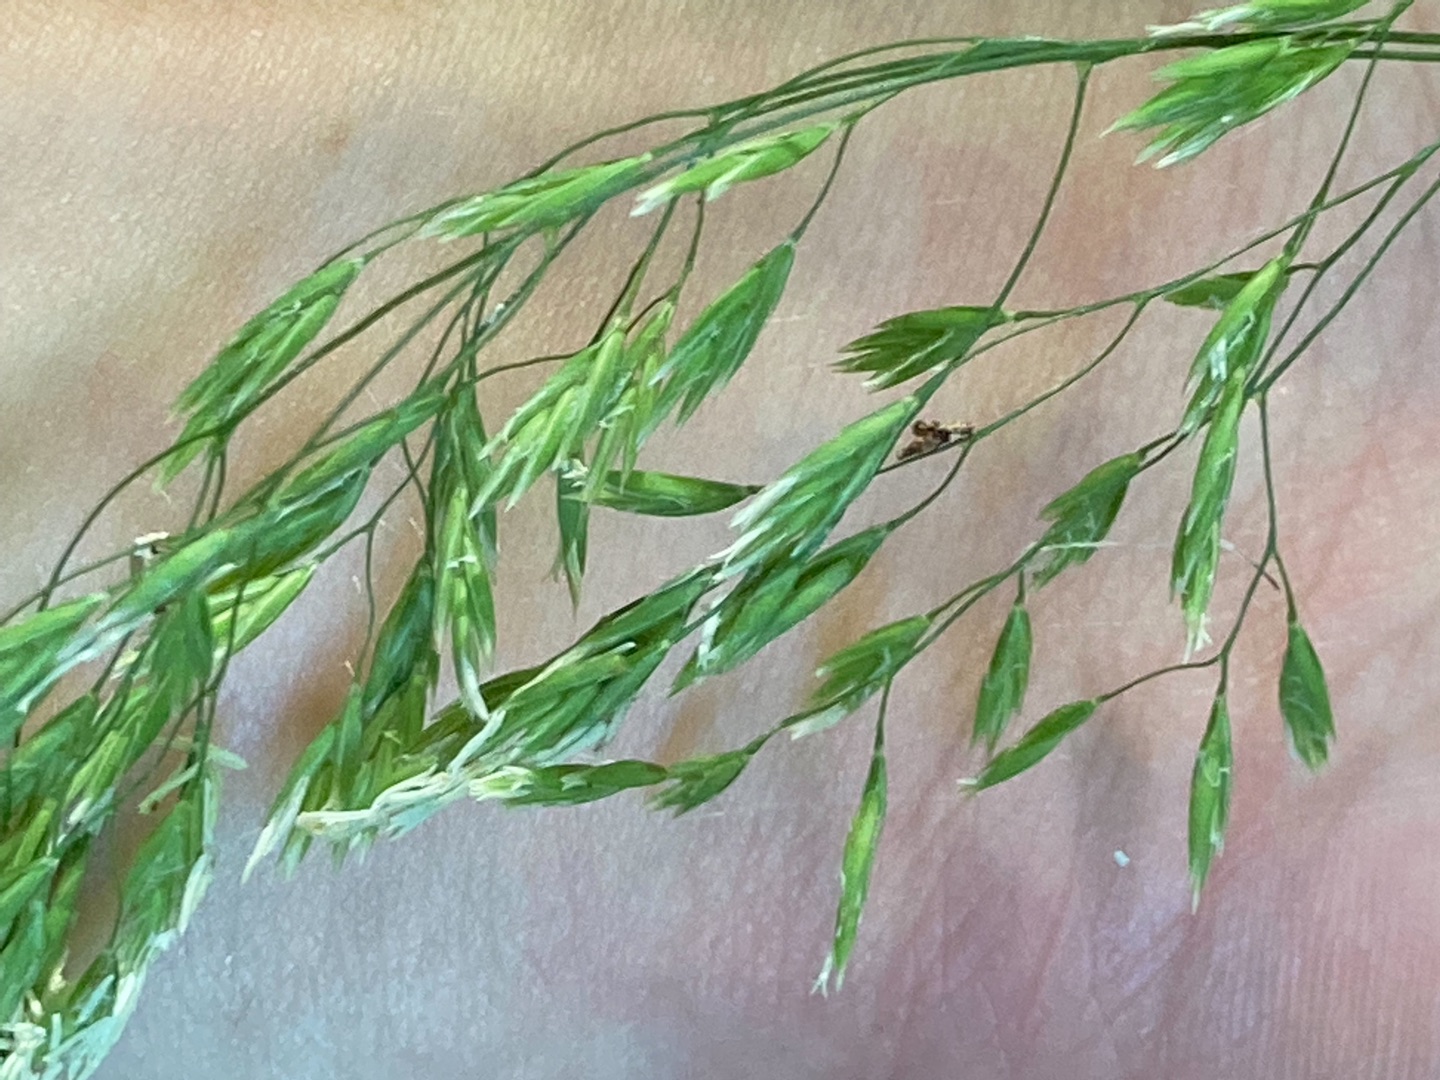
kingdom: Plantae
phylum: Tracheophyta
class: Liliopsida
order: Poales
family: Poaceae
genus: Festuca
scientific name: Festuca altissima
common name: Skov-svingel
